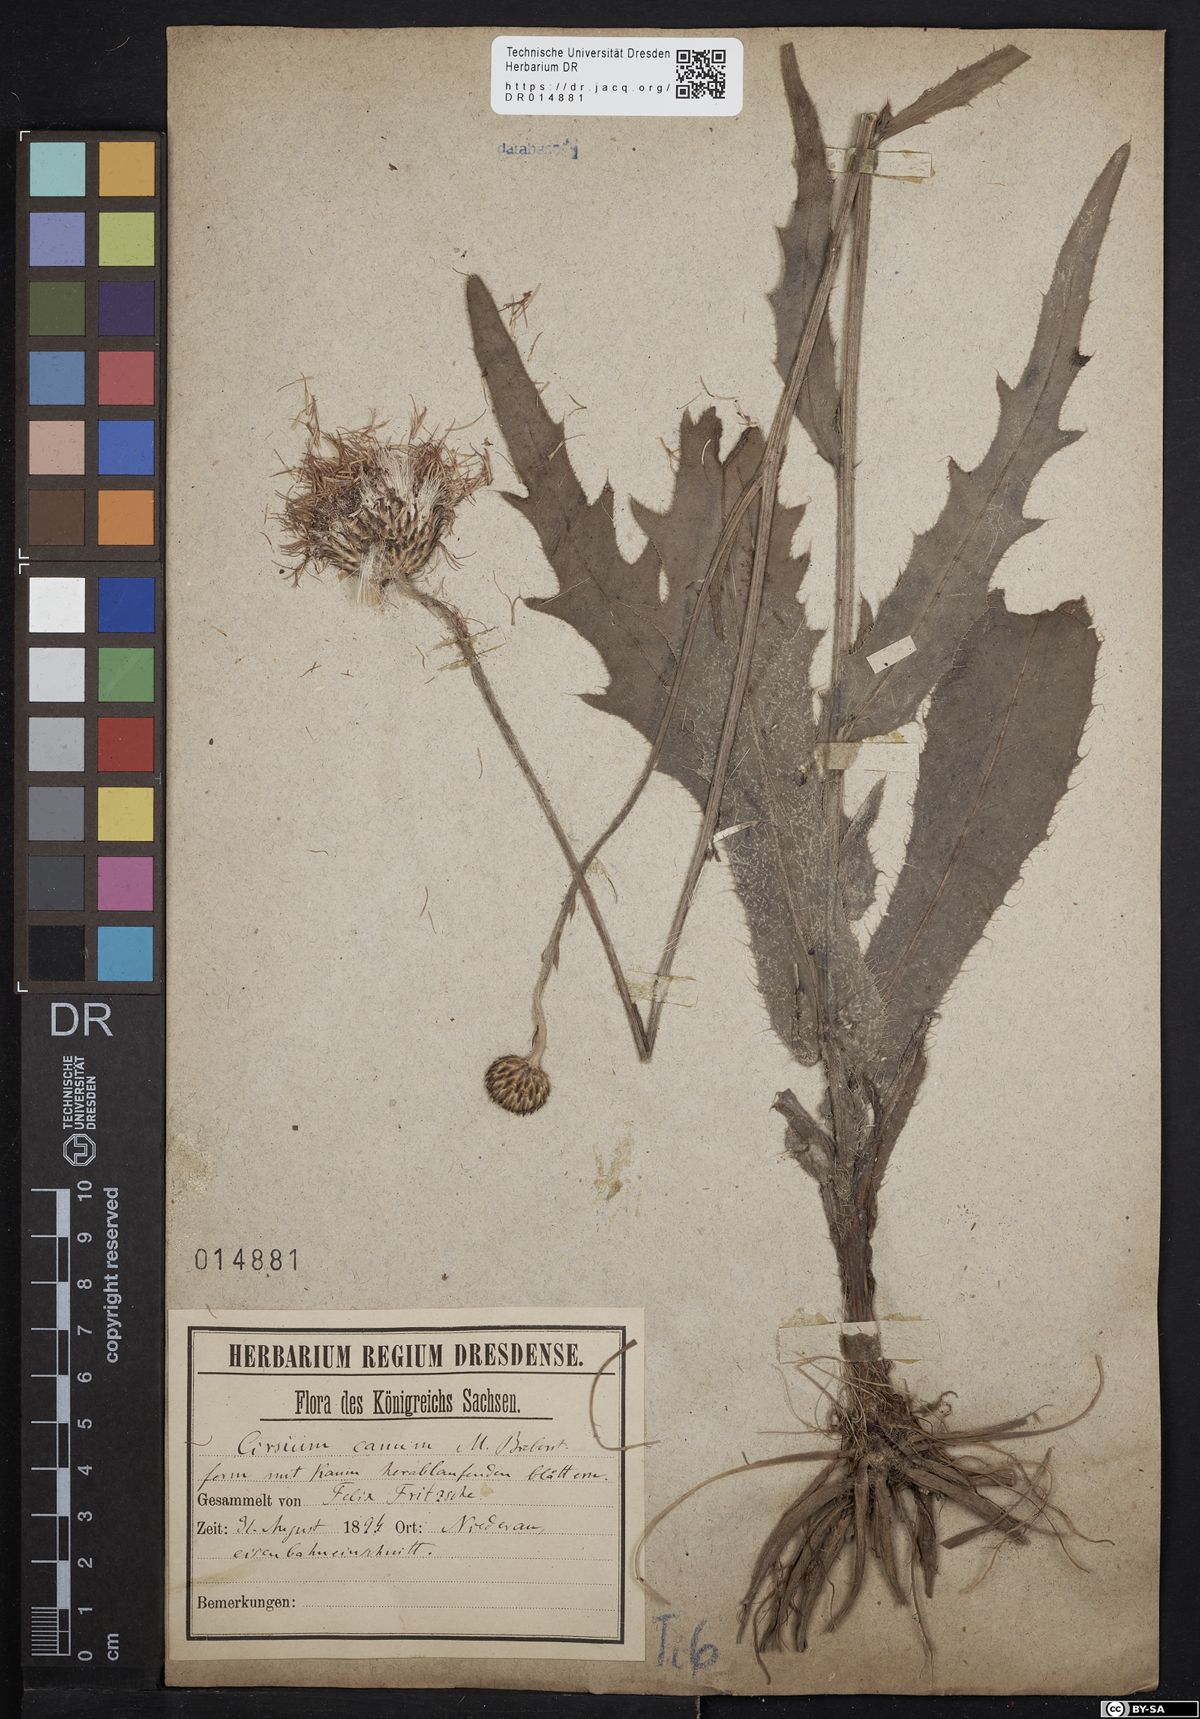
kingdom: Plantae
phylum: Tracheophyta
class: Magnoliopsida
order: Asterales
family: Asteraceae
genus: Cirsium
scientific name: Cirsium canum
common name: Queen anne's thistle
